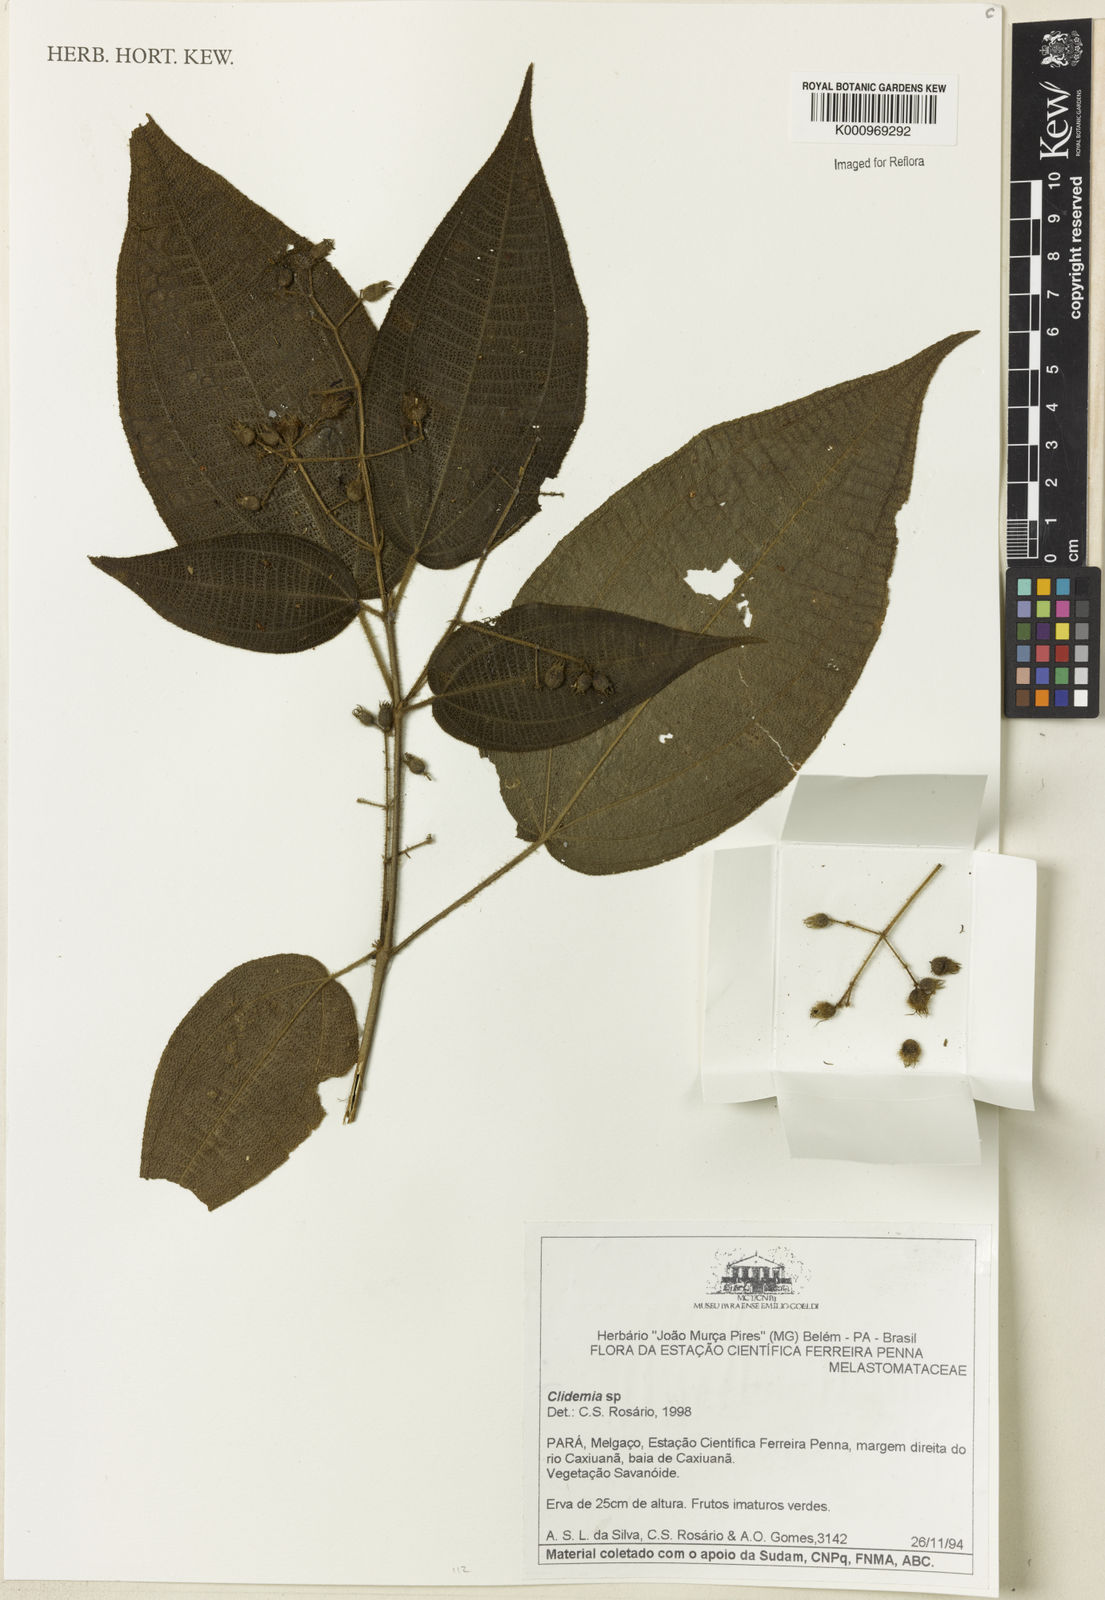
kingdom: Plantae
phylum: Tracheophyta
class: Magnoliopsida
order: Myrtales
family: Melastomataceae
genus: Miconia
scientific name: Miconia
